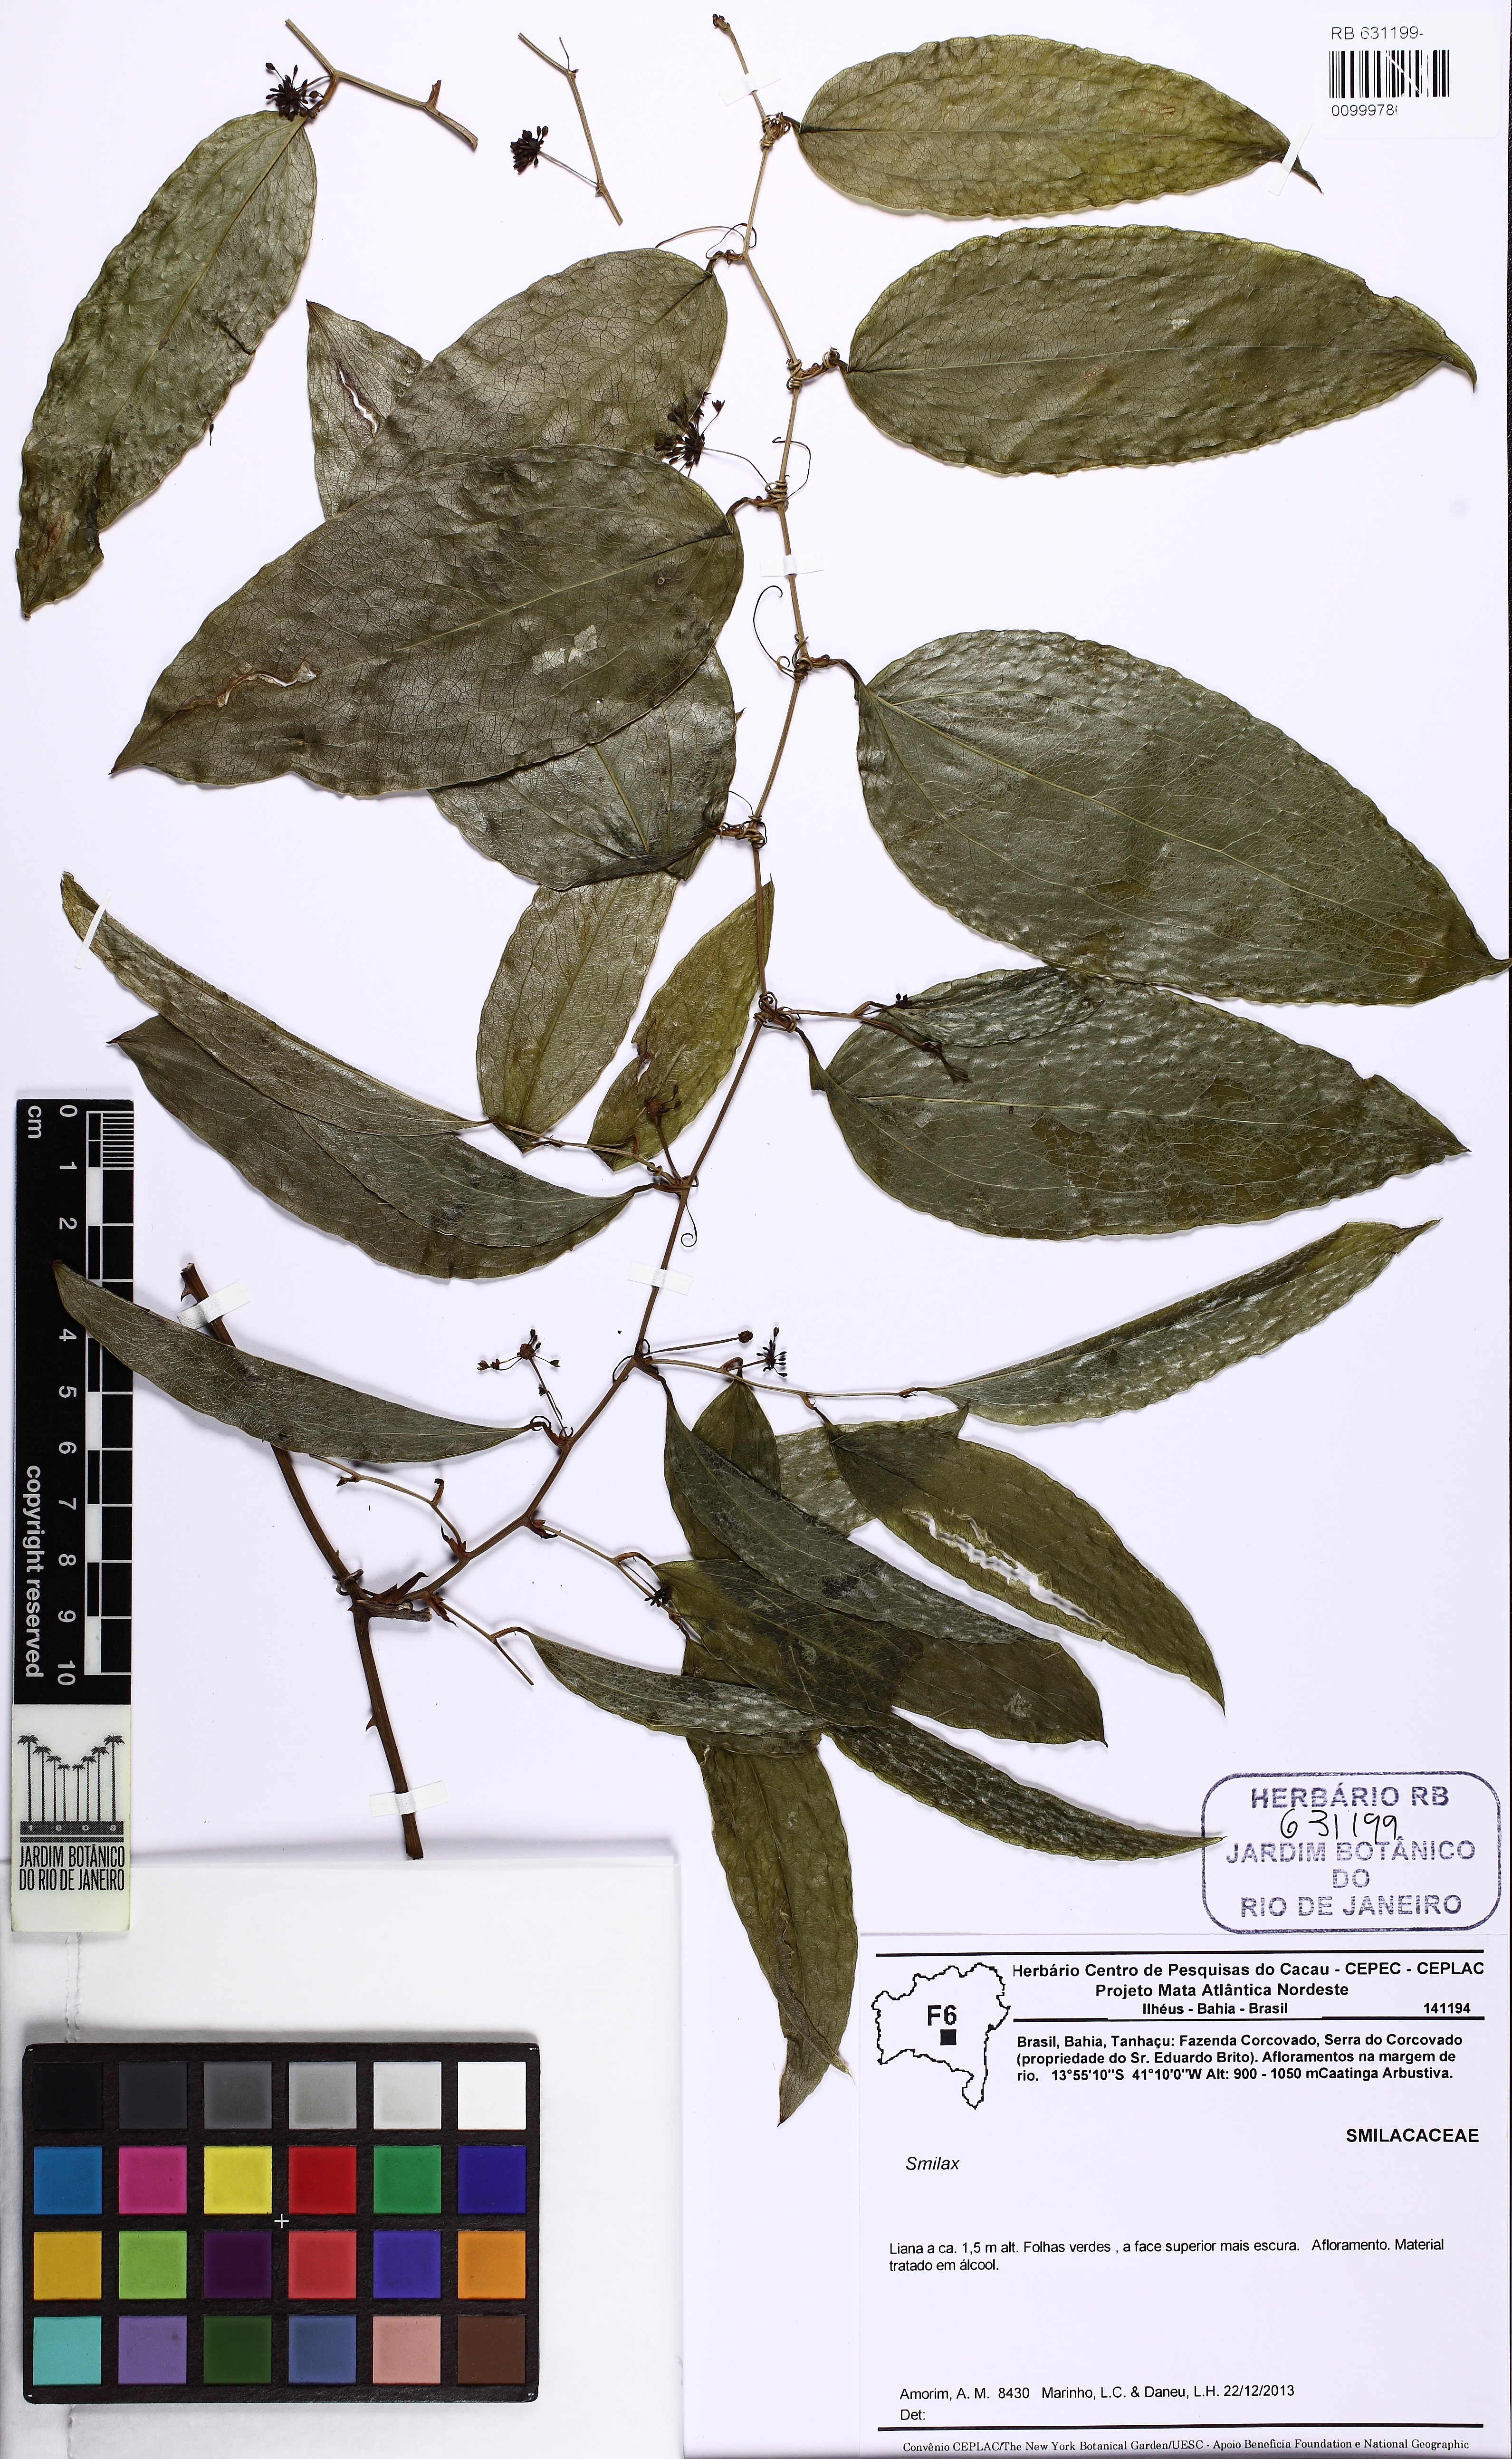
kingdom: Plantae
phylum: Tracheophyta
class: Liliopsida
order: Liliales
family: Smilacaceae
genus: Smilax
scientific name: Smilax
